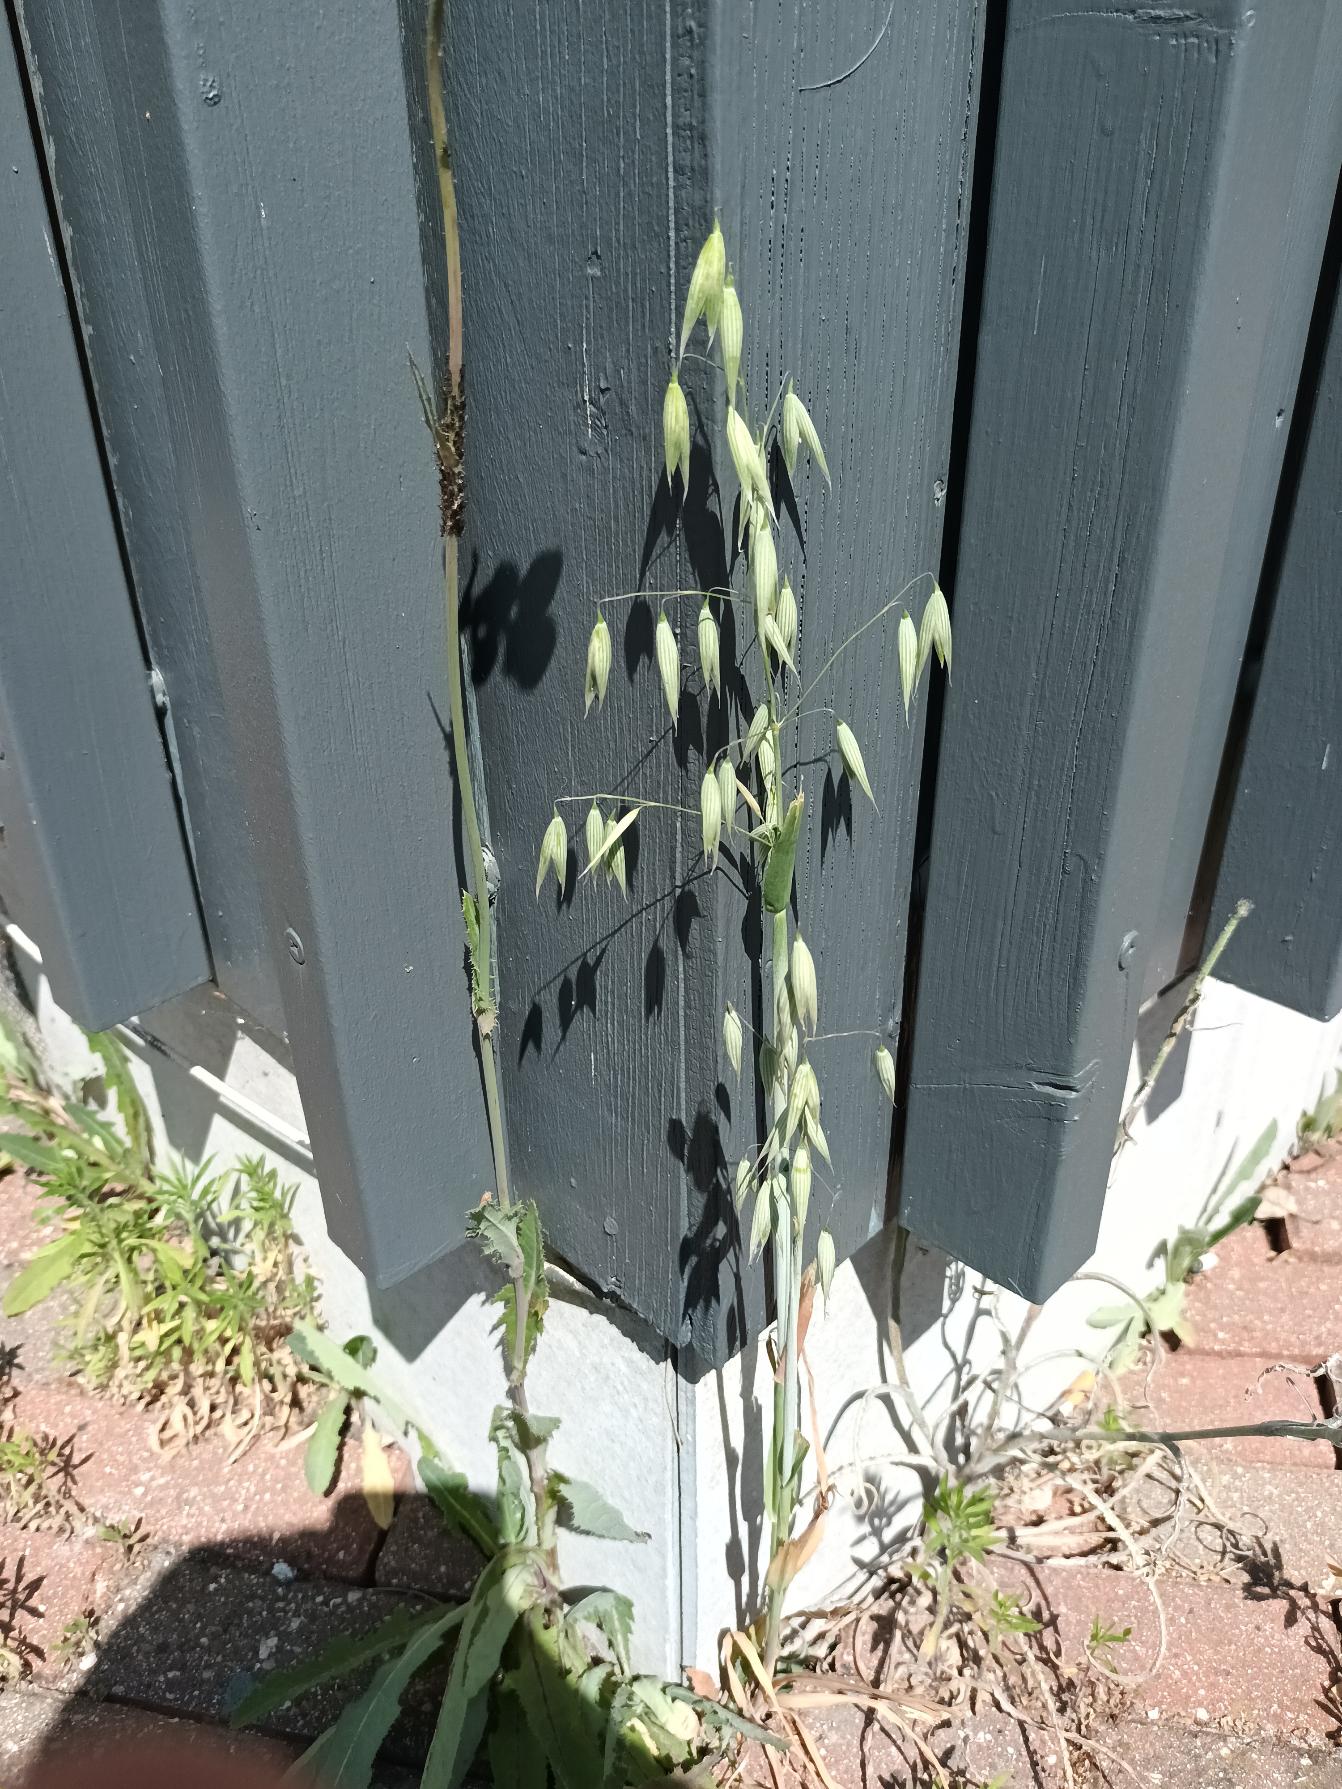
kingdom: Plantae
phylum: Tracheophyta
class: Liliopsida
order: Poales
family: Poaceae
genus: Avena
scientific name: Avena sativa
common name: Almindelig havre
